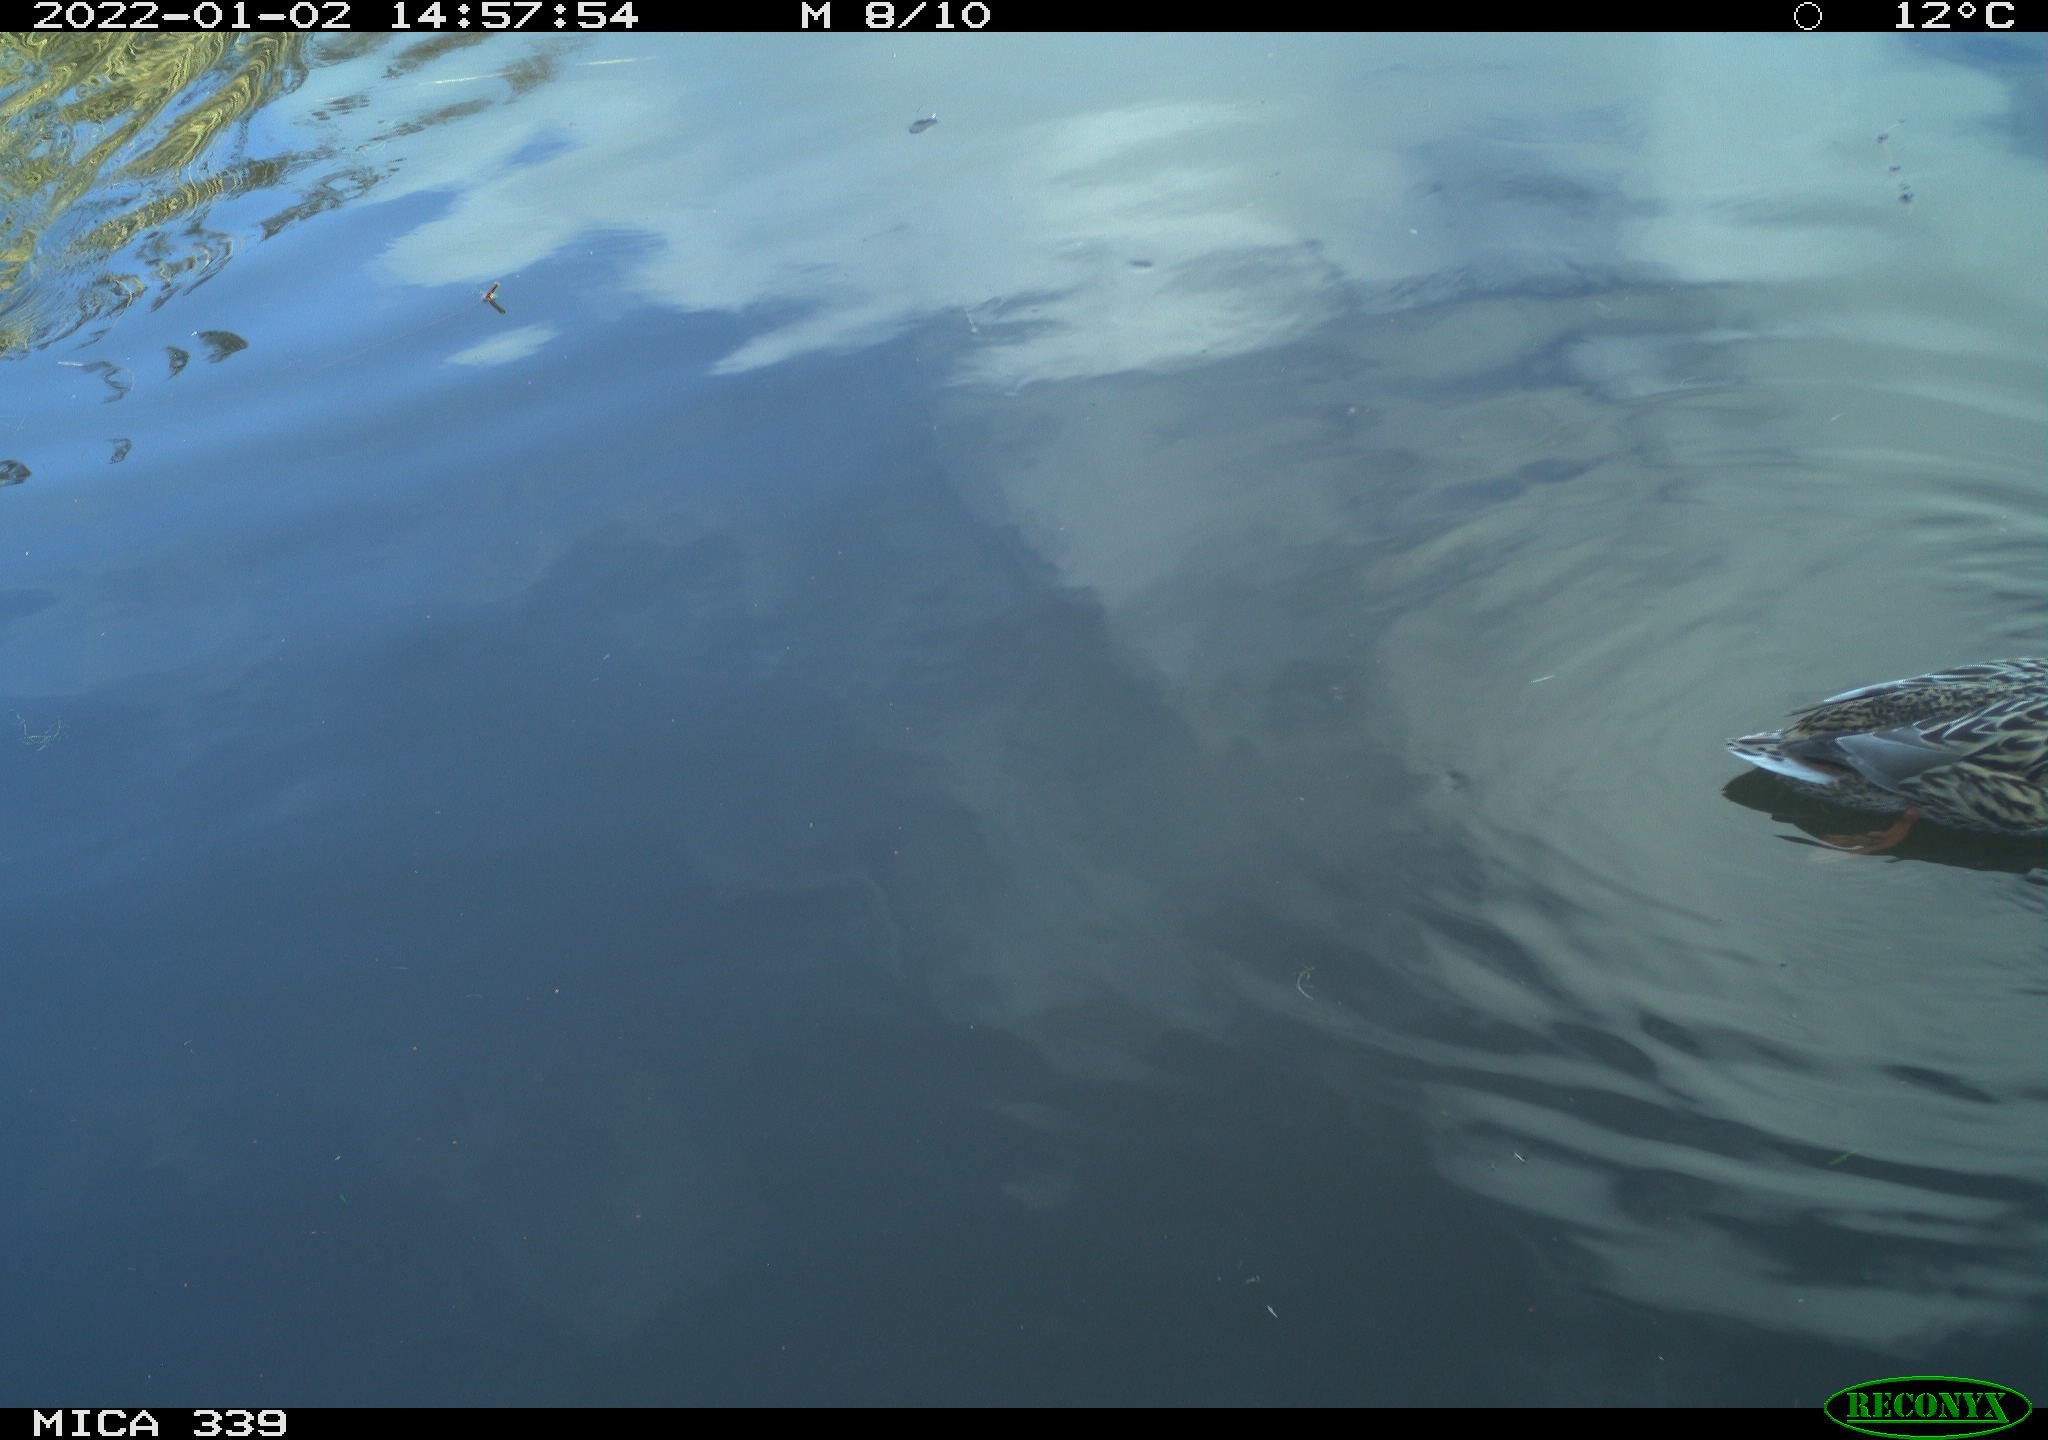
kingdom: Animalia
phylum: Chordata
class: Aves
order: Anseriformes
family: Anatidae
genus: Anas
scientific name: Anas platyrhynchos
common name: Mallard
